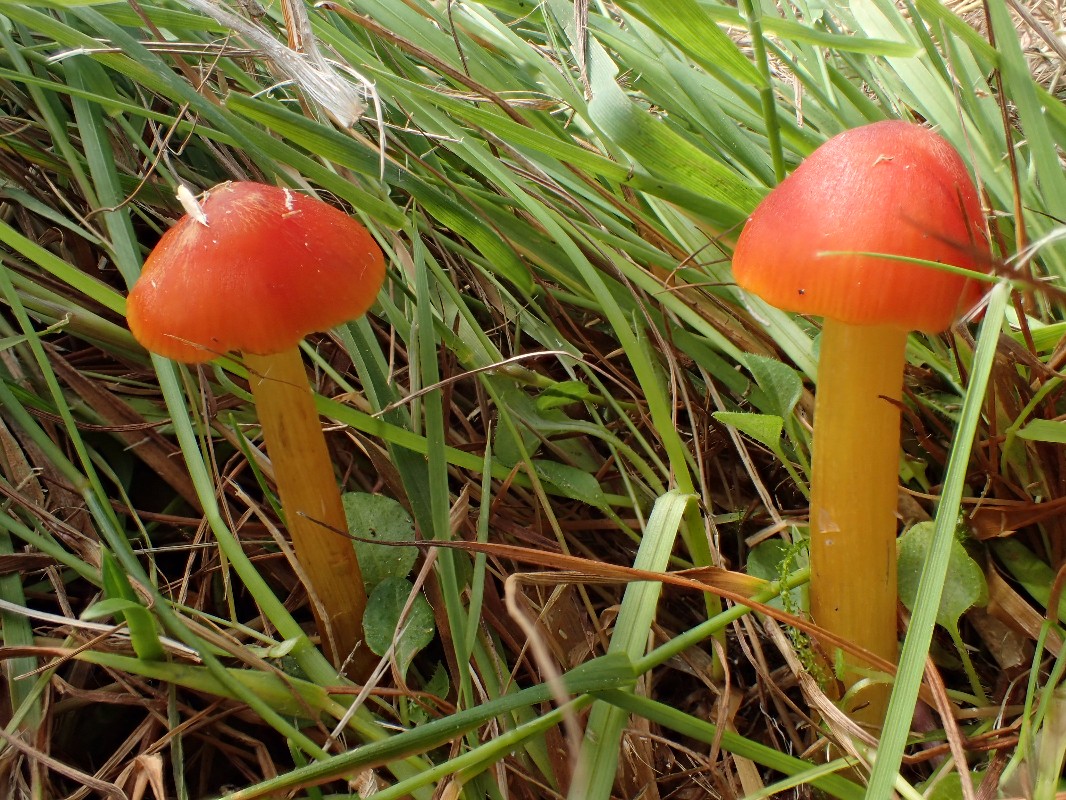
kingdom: Fungi
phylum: Basidiomycota
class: Agaricomycetes
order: Agaricales
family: Hygrophoraceae
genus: Hygrocybe
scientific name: Hygrocybe
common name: vokshat
